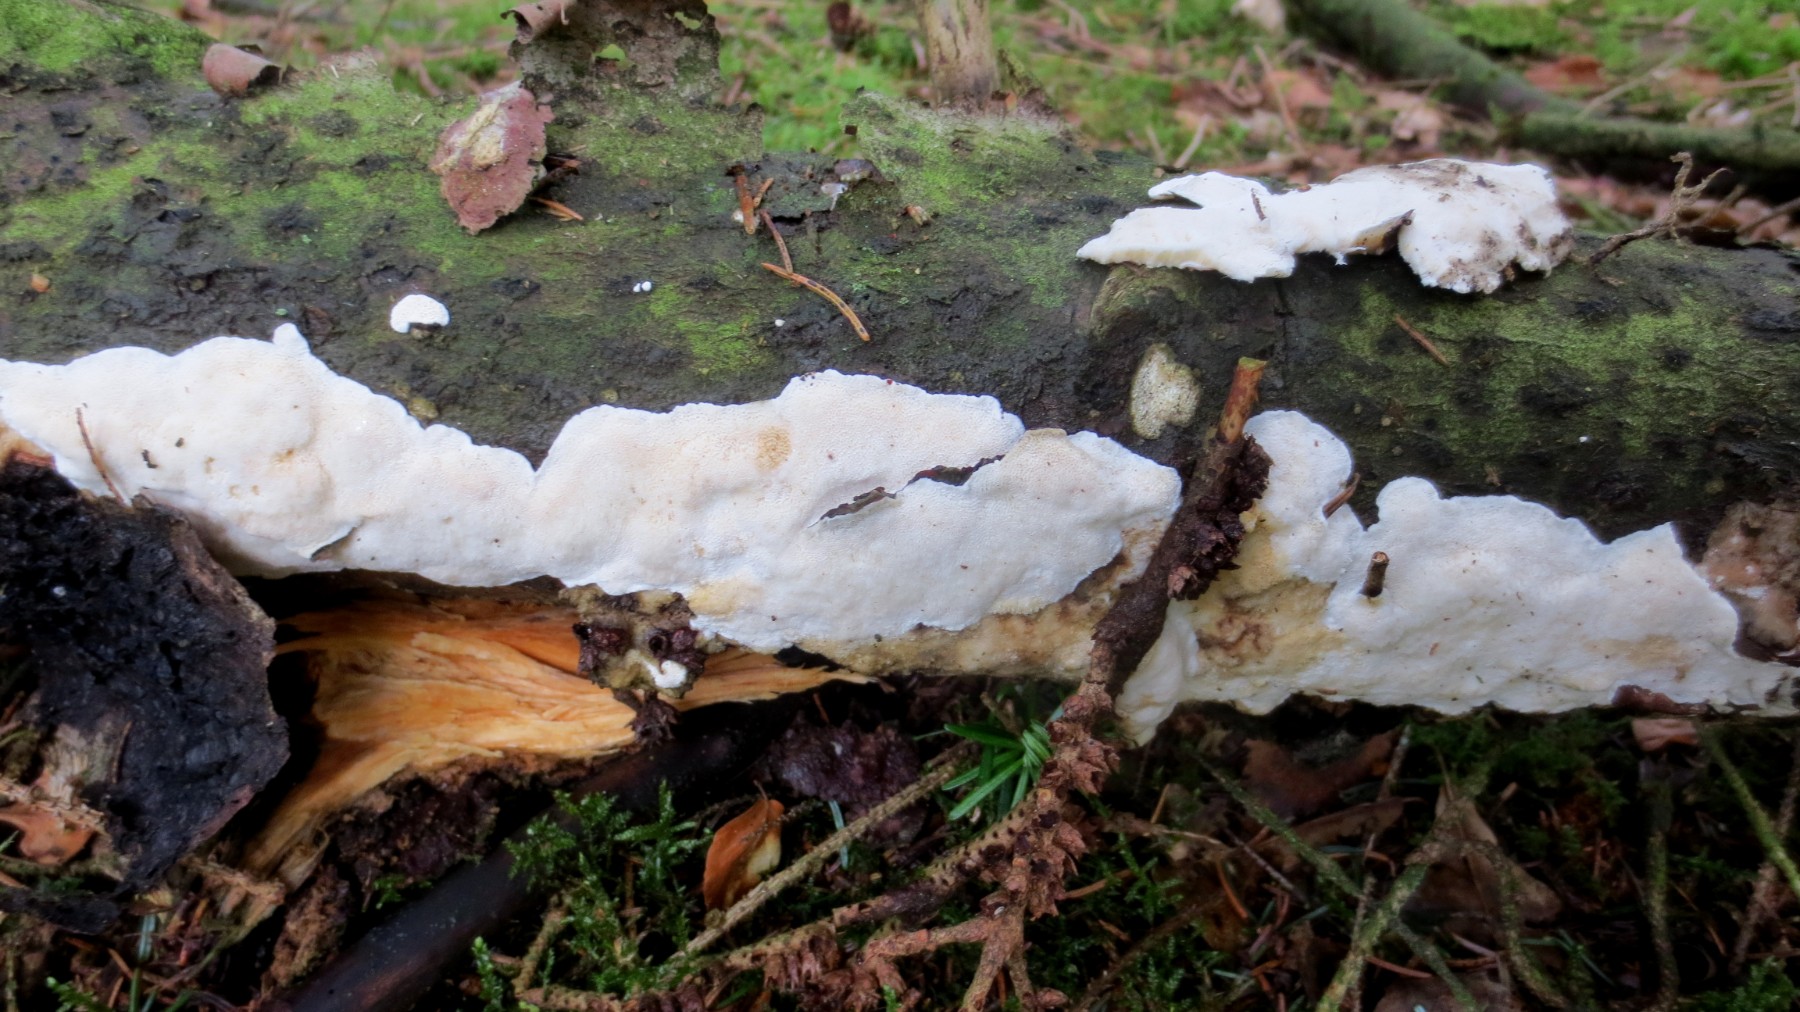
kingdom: Fungi
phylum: Basidiomycota
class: Agaricomycetes
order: Polyporales
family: Gelatoporiaceae
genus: Cinereomyces
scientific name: Cinereomyces lindbladii
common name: almindelig gråporesvamp
